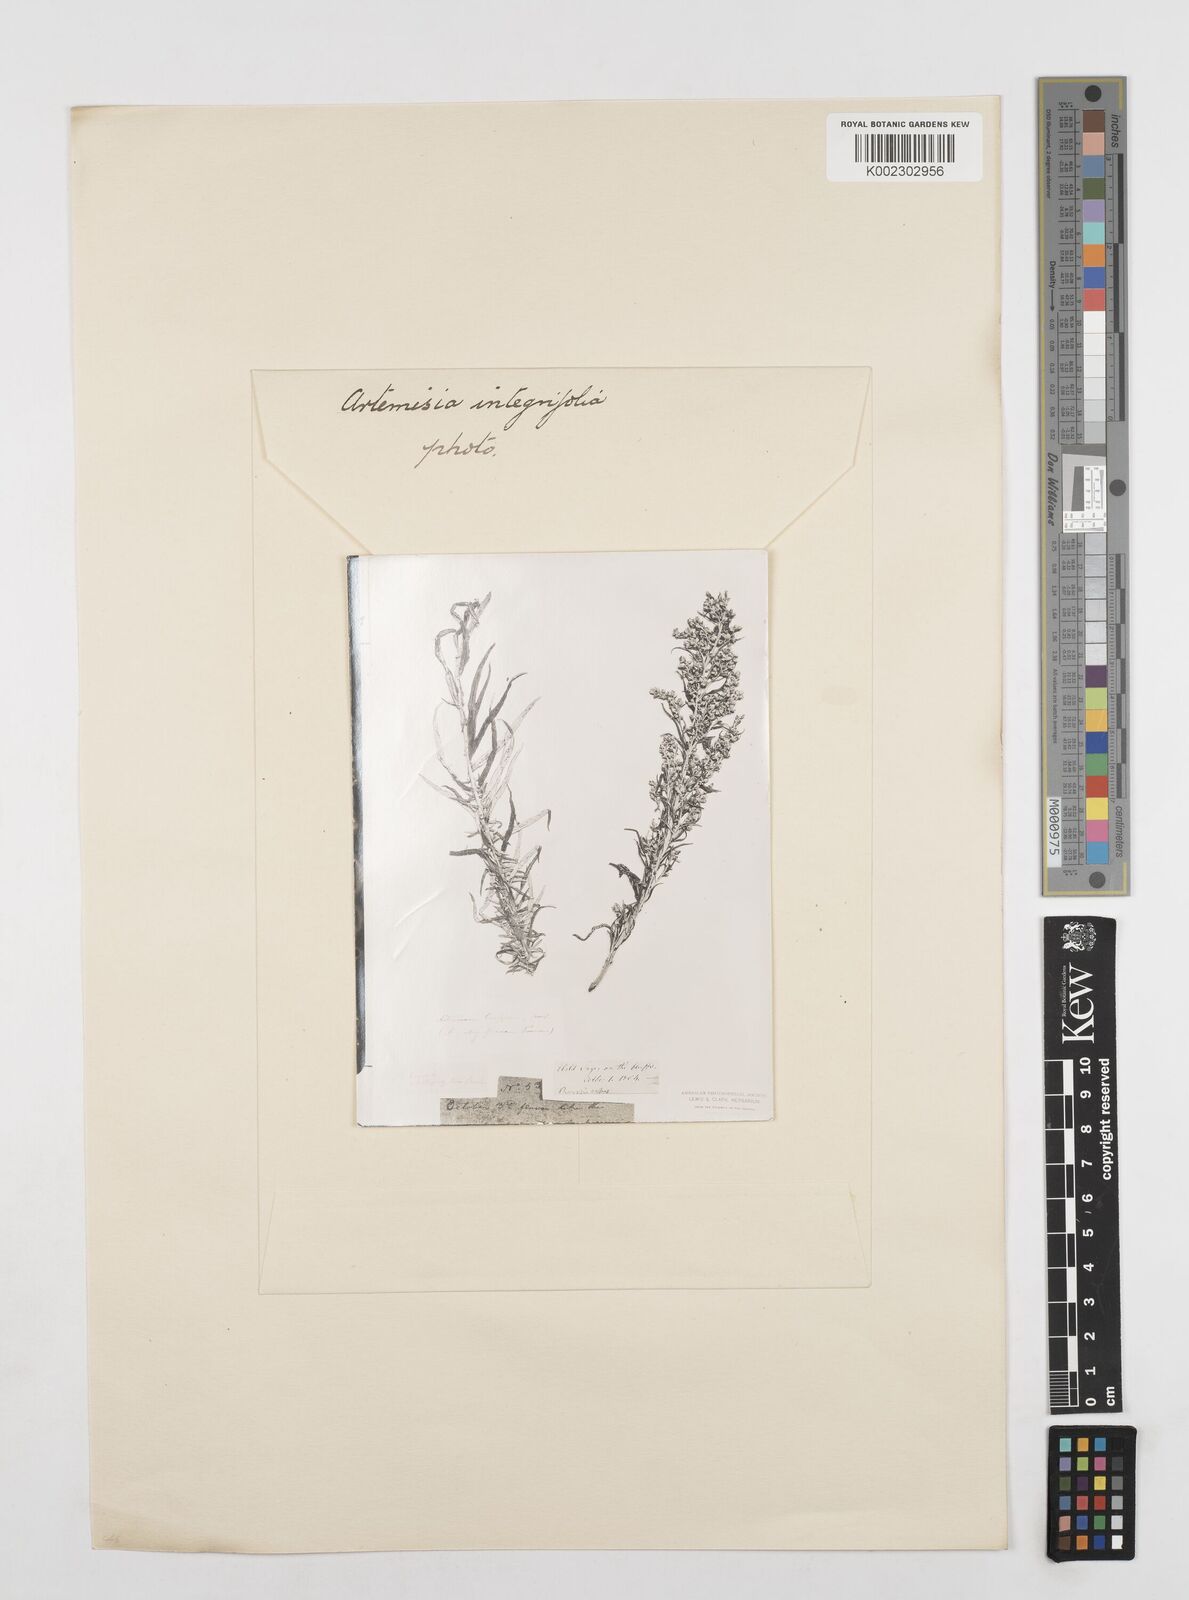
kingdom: Plantae
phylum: Tracheophyta
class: Magnoliopsida
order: Asterales
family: Asteraceae
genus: Artemisia
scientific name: Artemisia integrifolia
